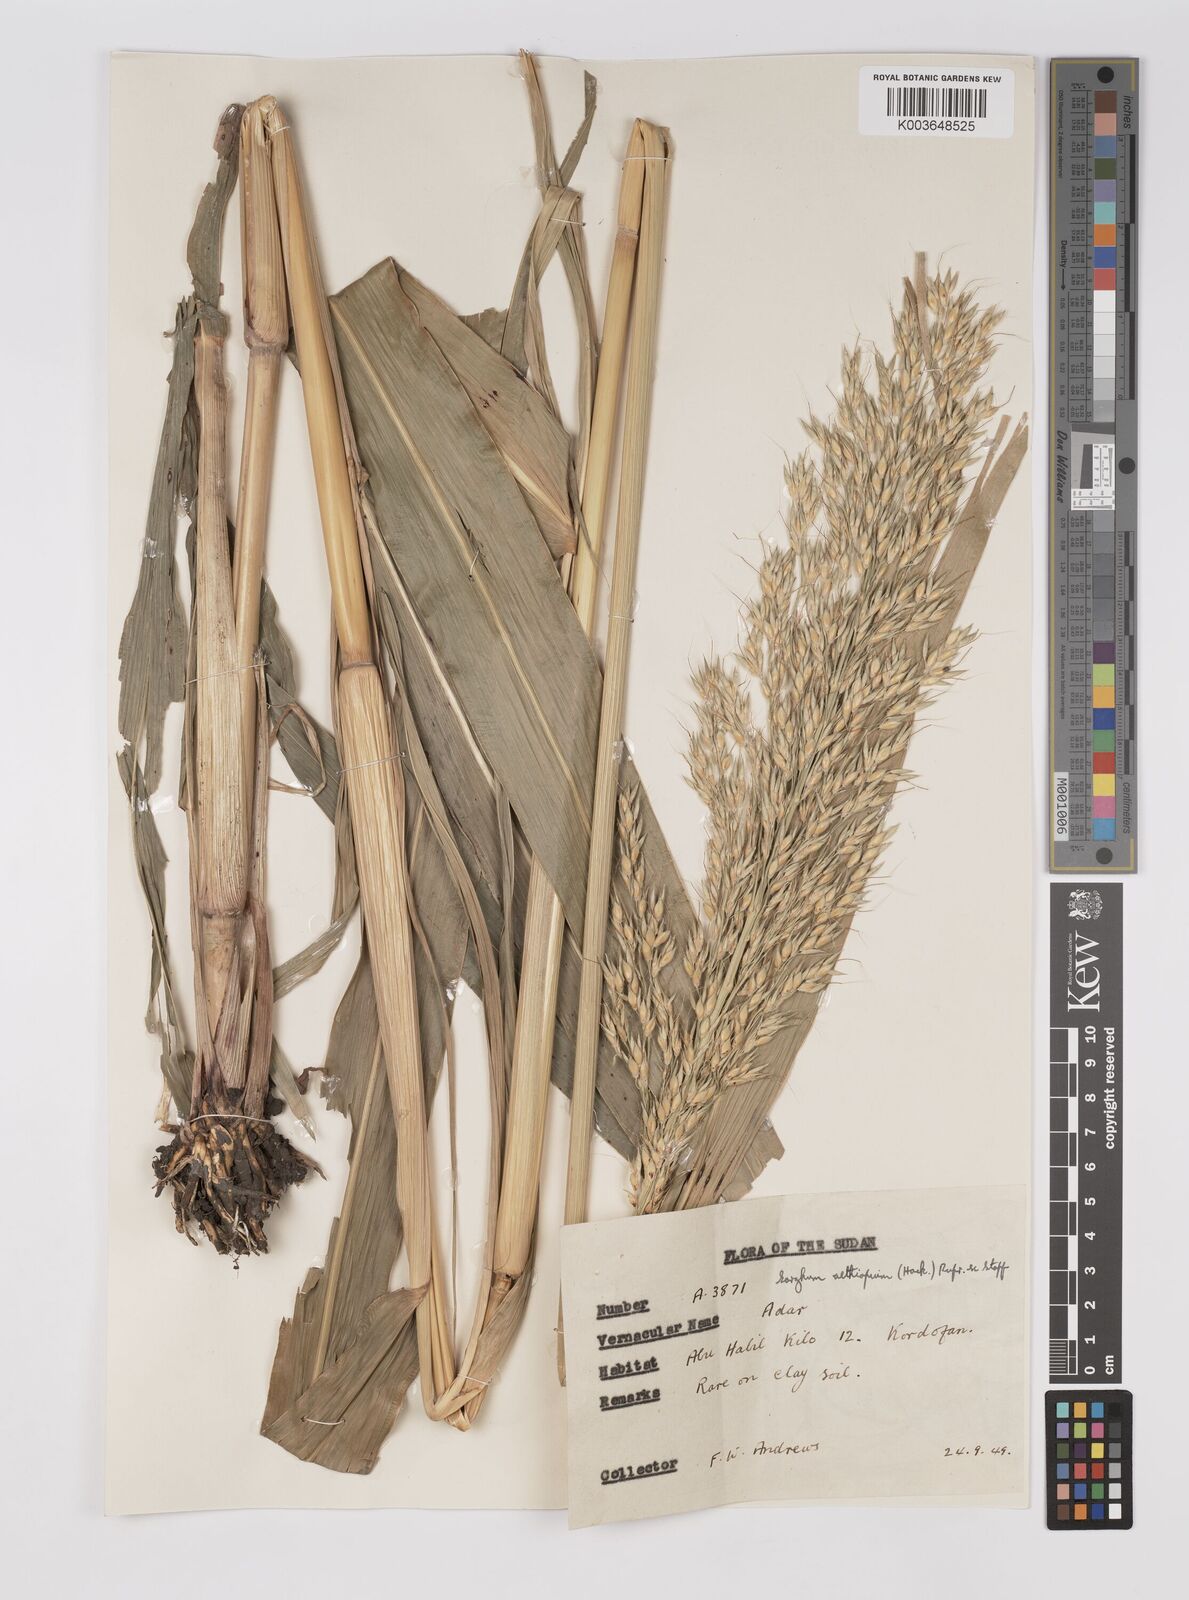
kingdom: Plantae
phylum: Tracheophyta
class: Liliopsida
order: Poales
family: Poaceae
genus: Sorghum
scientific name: Sorghum drummondii
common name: Sudangrass
